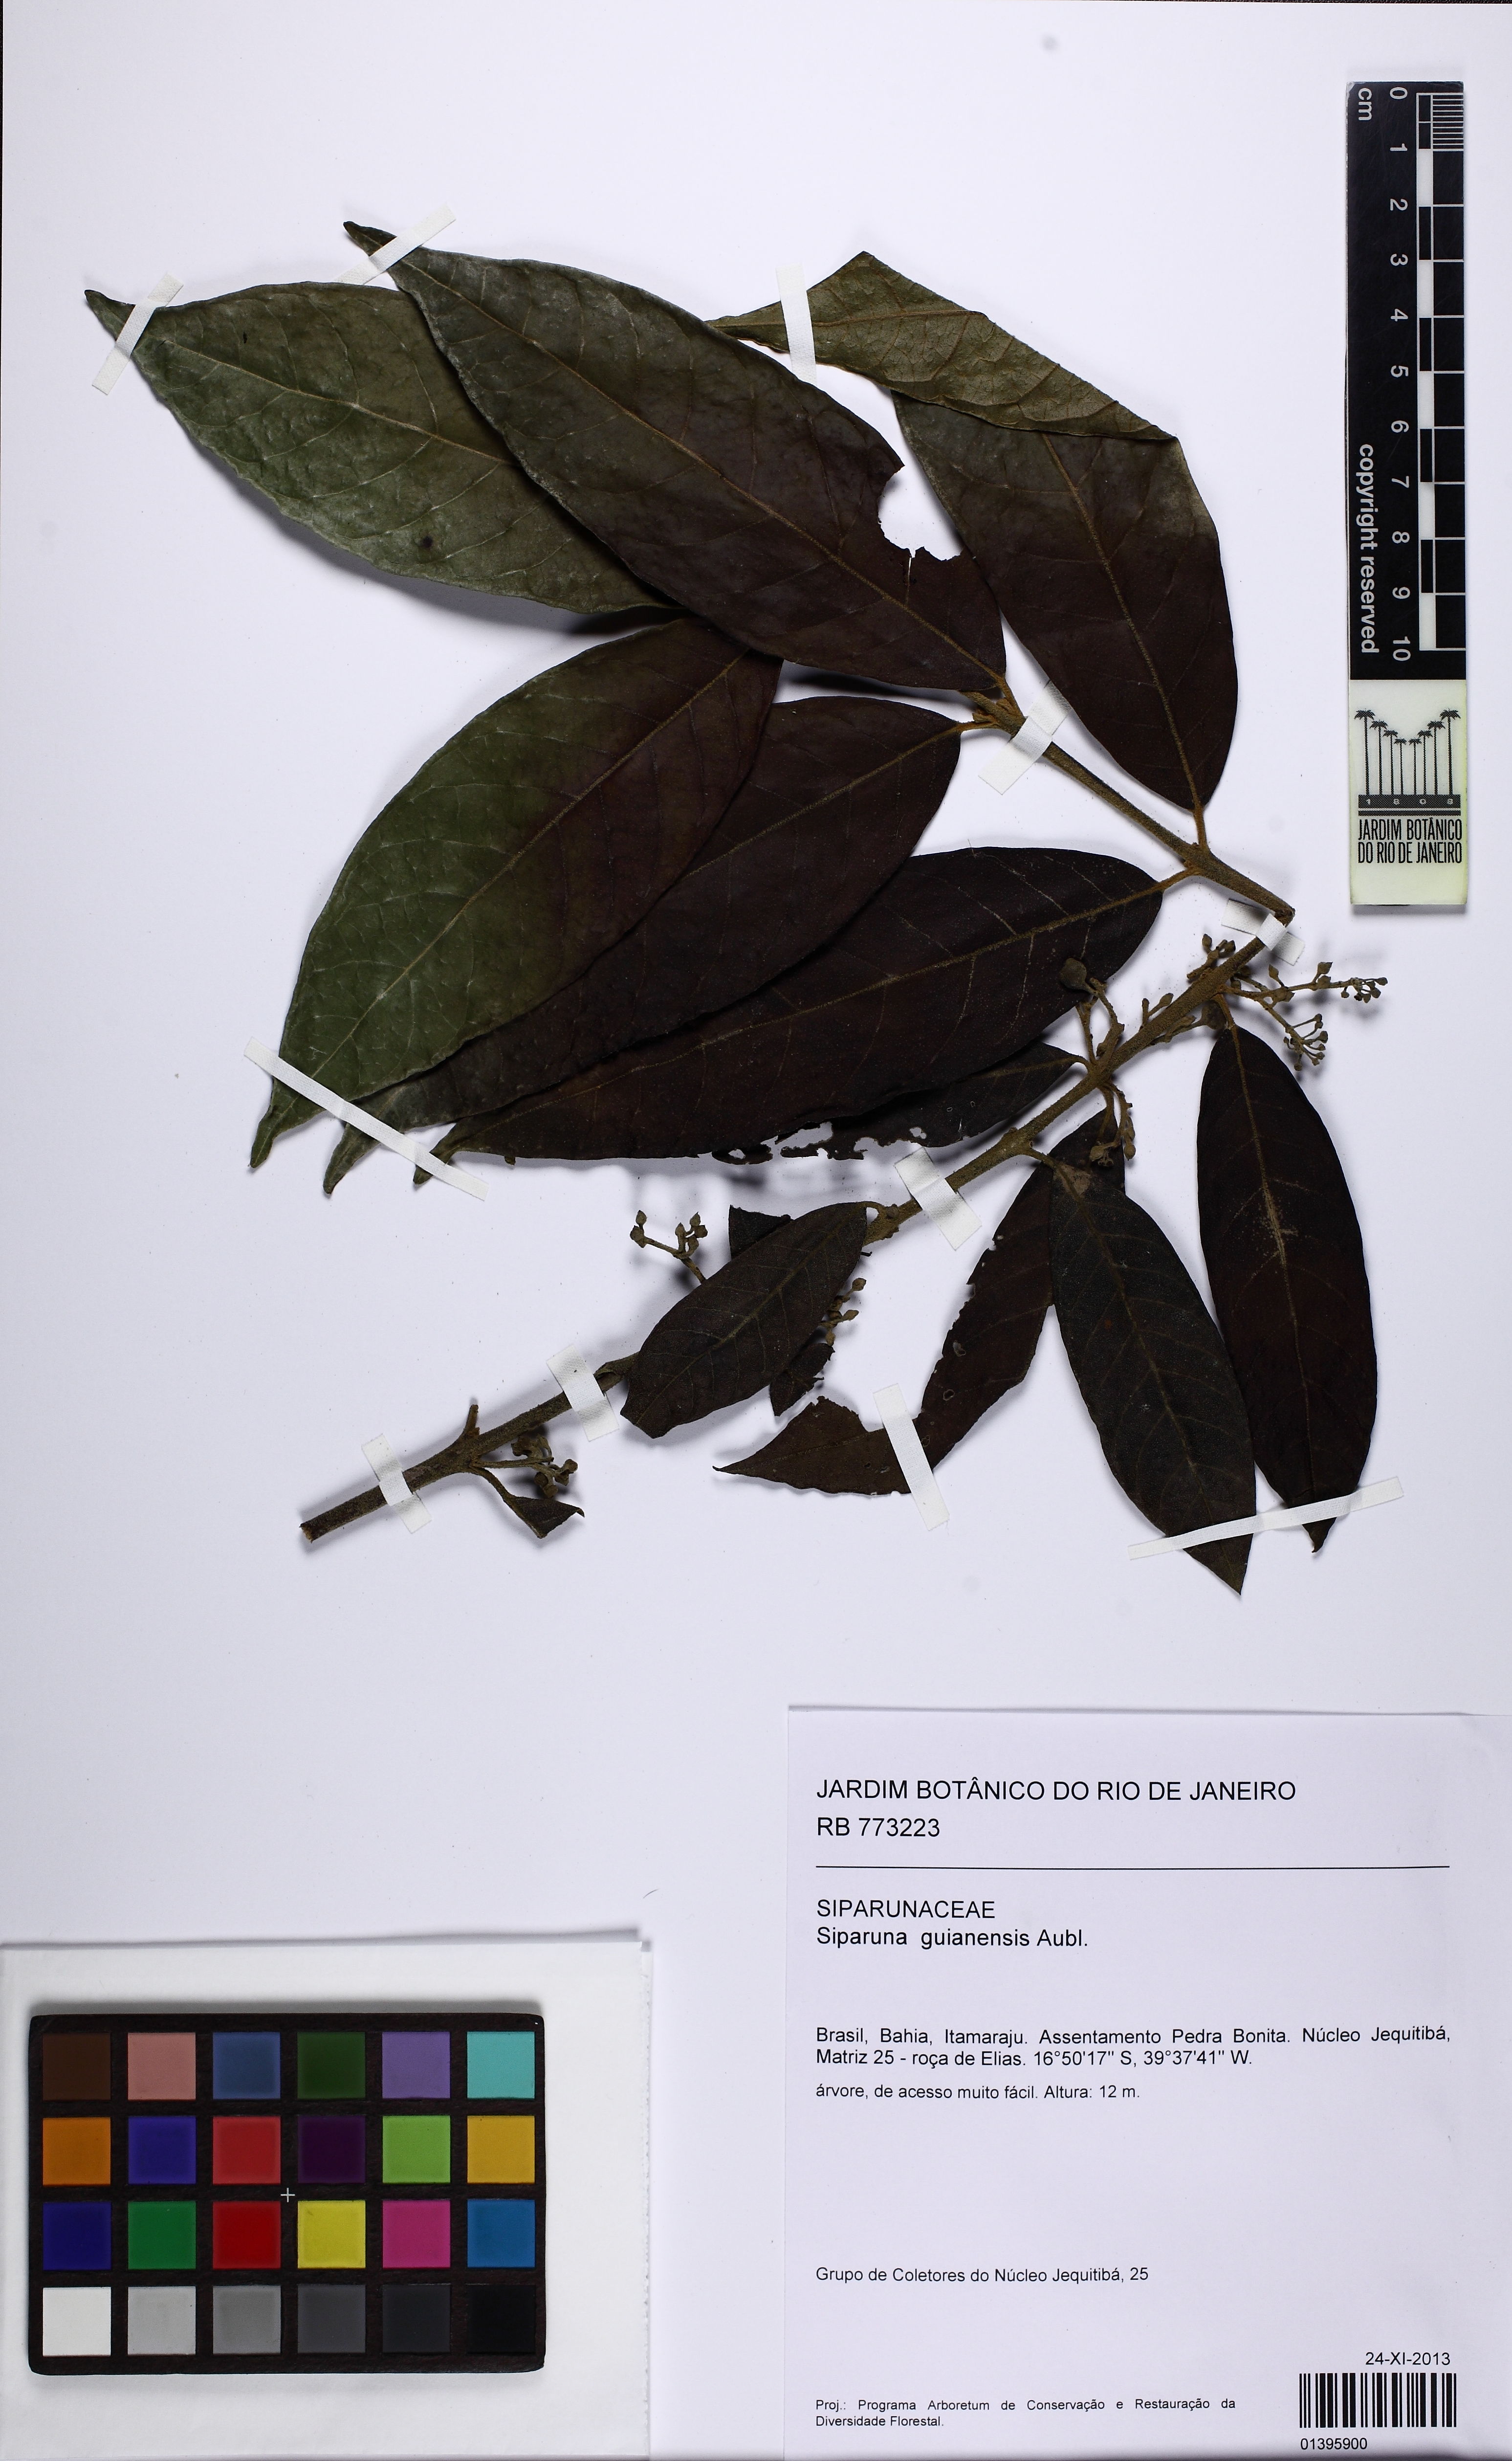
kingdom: Plantae
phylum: Tracheophyta
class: Magnoliopsida
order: Laurales
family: Siparunaceae
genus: Siparuna
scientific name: Siparuna guianensis
